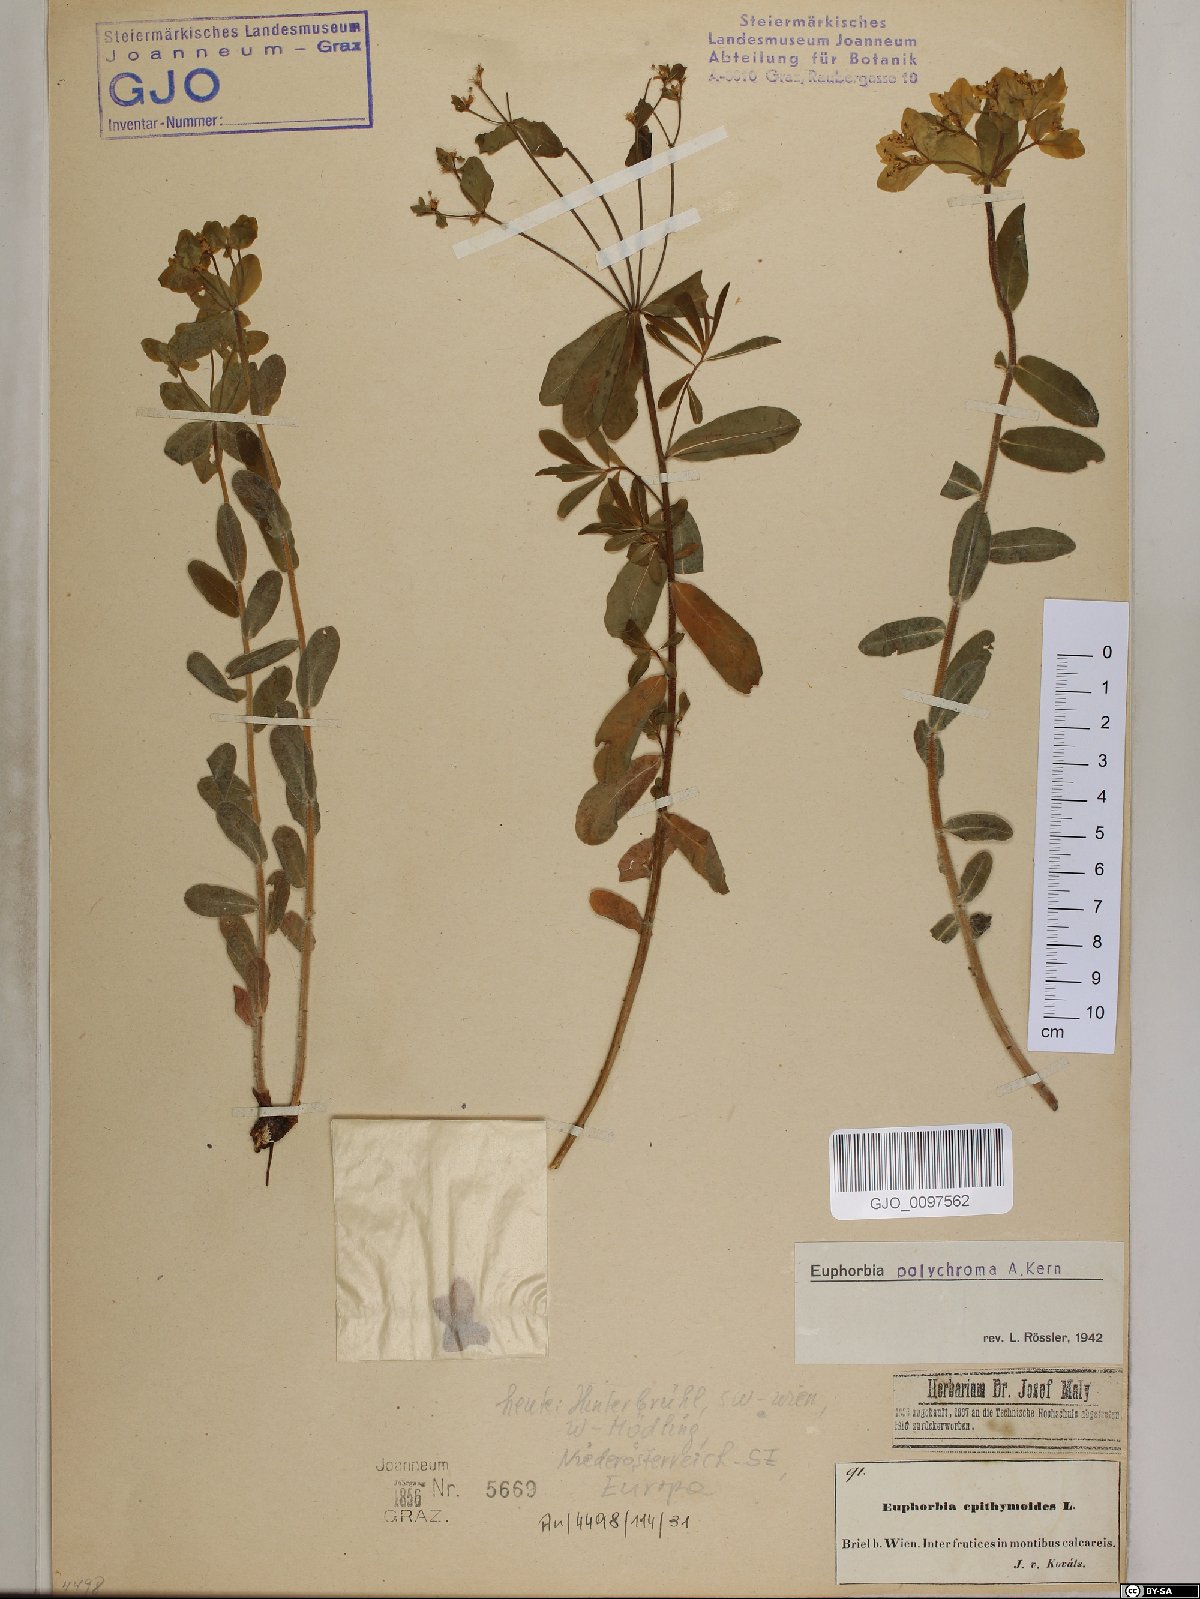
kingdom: Plantae
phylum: Tracheophyta
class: Magnoliopsida
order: Malpighiales
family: Euphorbiaceae
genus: Euphorbia
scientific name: Euphorbia epithymoides
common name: Cushion spurge
